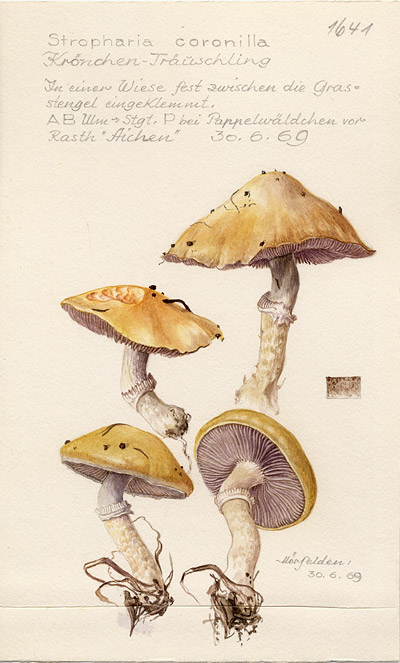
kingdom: Fungi
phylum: Basidiomycota
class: Agaricomycetes
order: Agaricales
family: Hymenogastraceae
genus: Psilocybe
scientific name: Psilocybe coronilla
